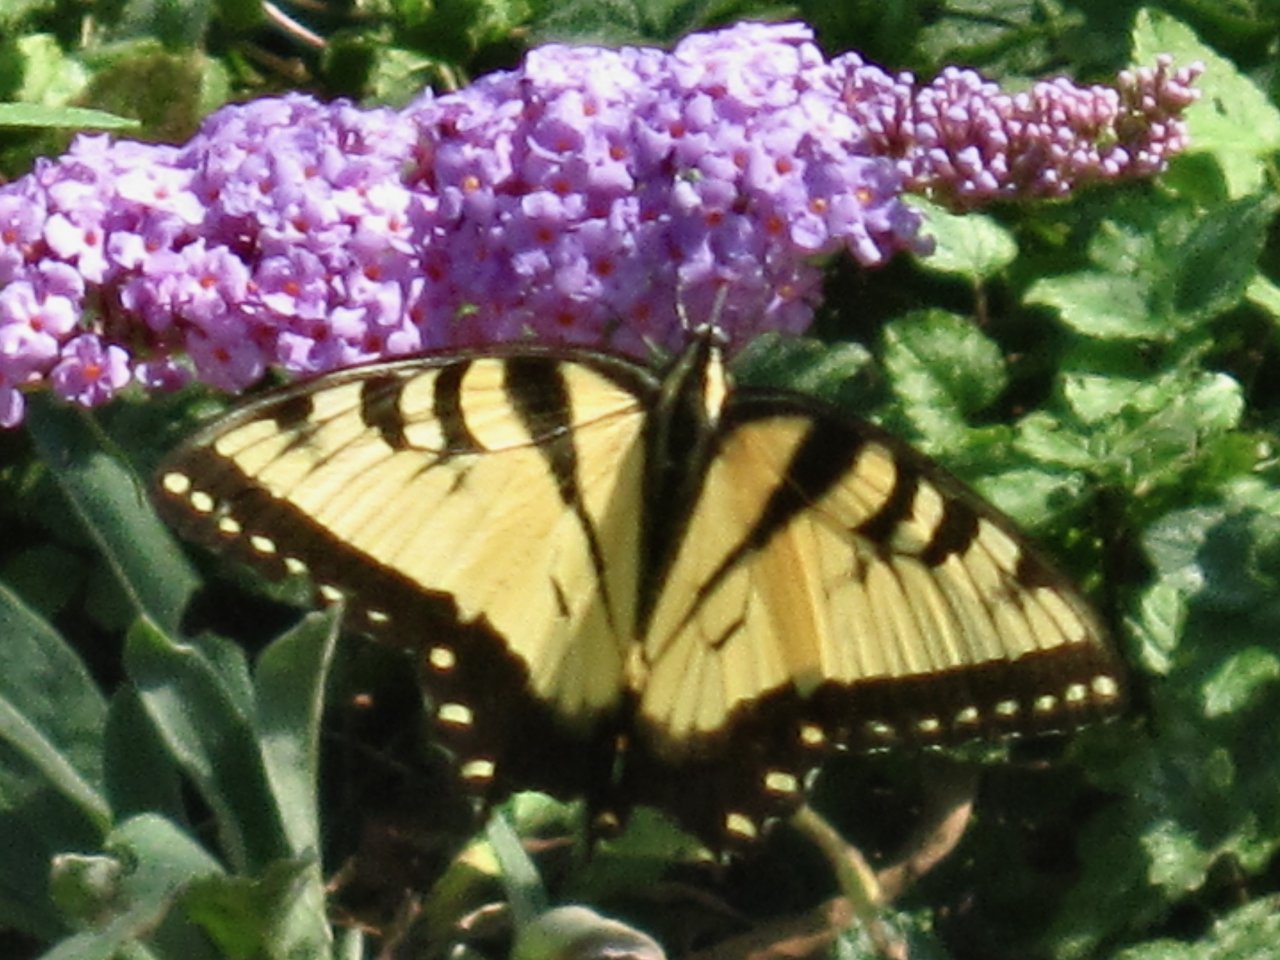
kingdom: Animalia
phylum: Arthropoda
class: Insecta
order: Lepidoptera
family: Papilionidae
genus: Pterourus
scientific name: Pterourus glaucus
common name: Eastern Tiger Swallowtail
